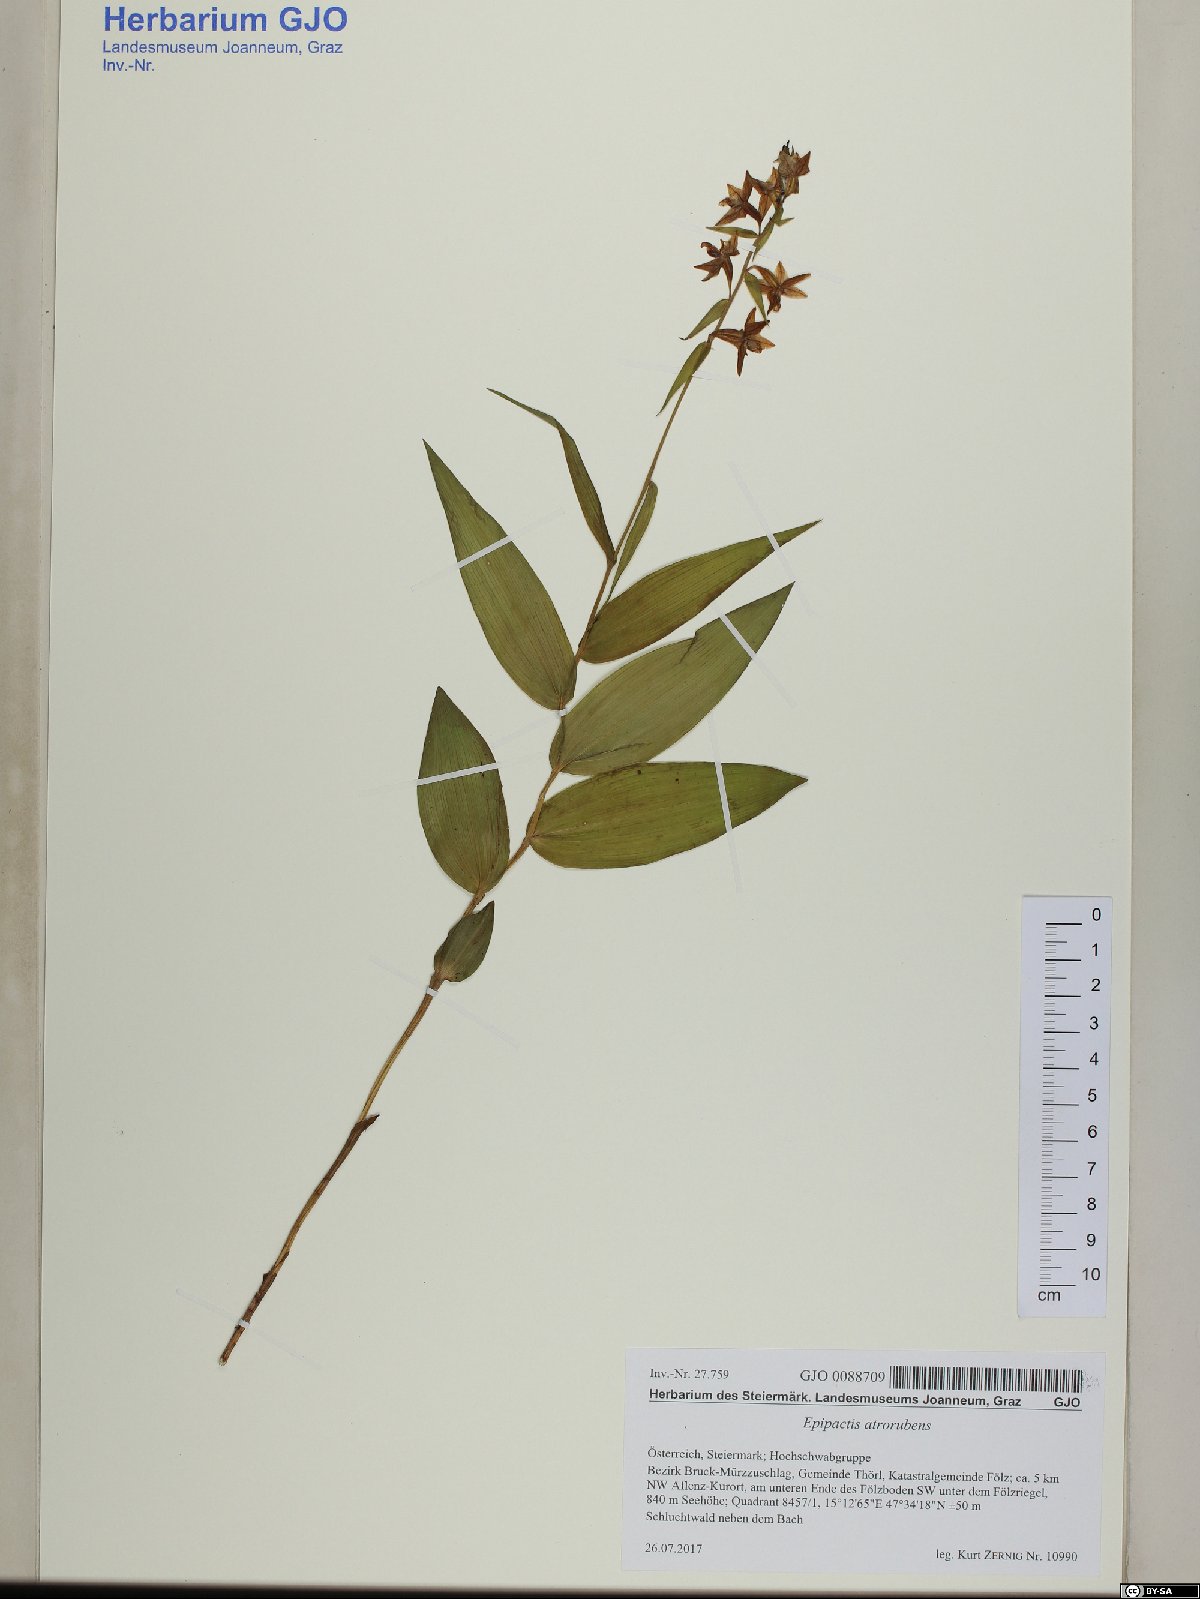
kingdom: Plantae
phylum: Tracheophyta
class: Liliopsida
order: Asparagales
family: Orchidaceae
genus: Epipactis
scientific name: Epipactis atrorubens
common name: Dark-red helleborine
